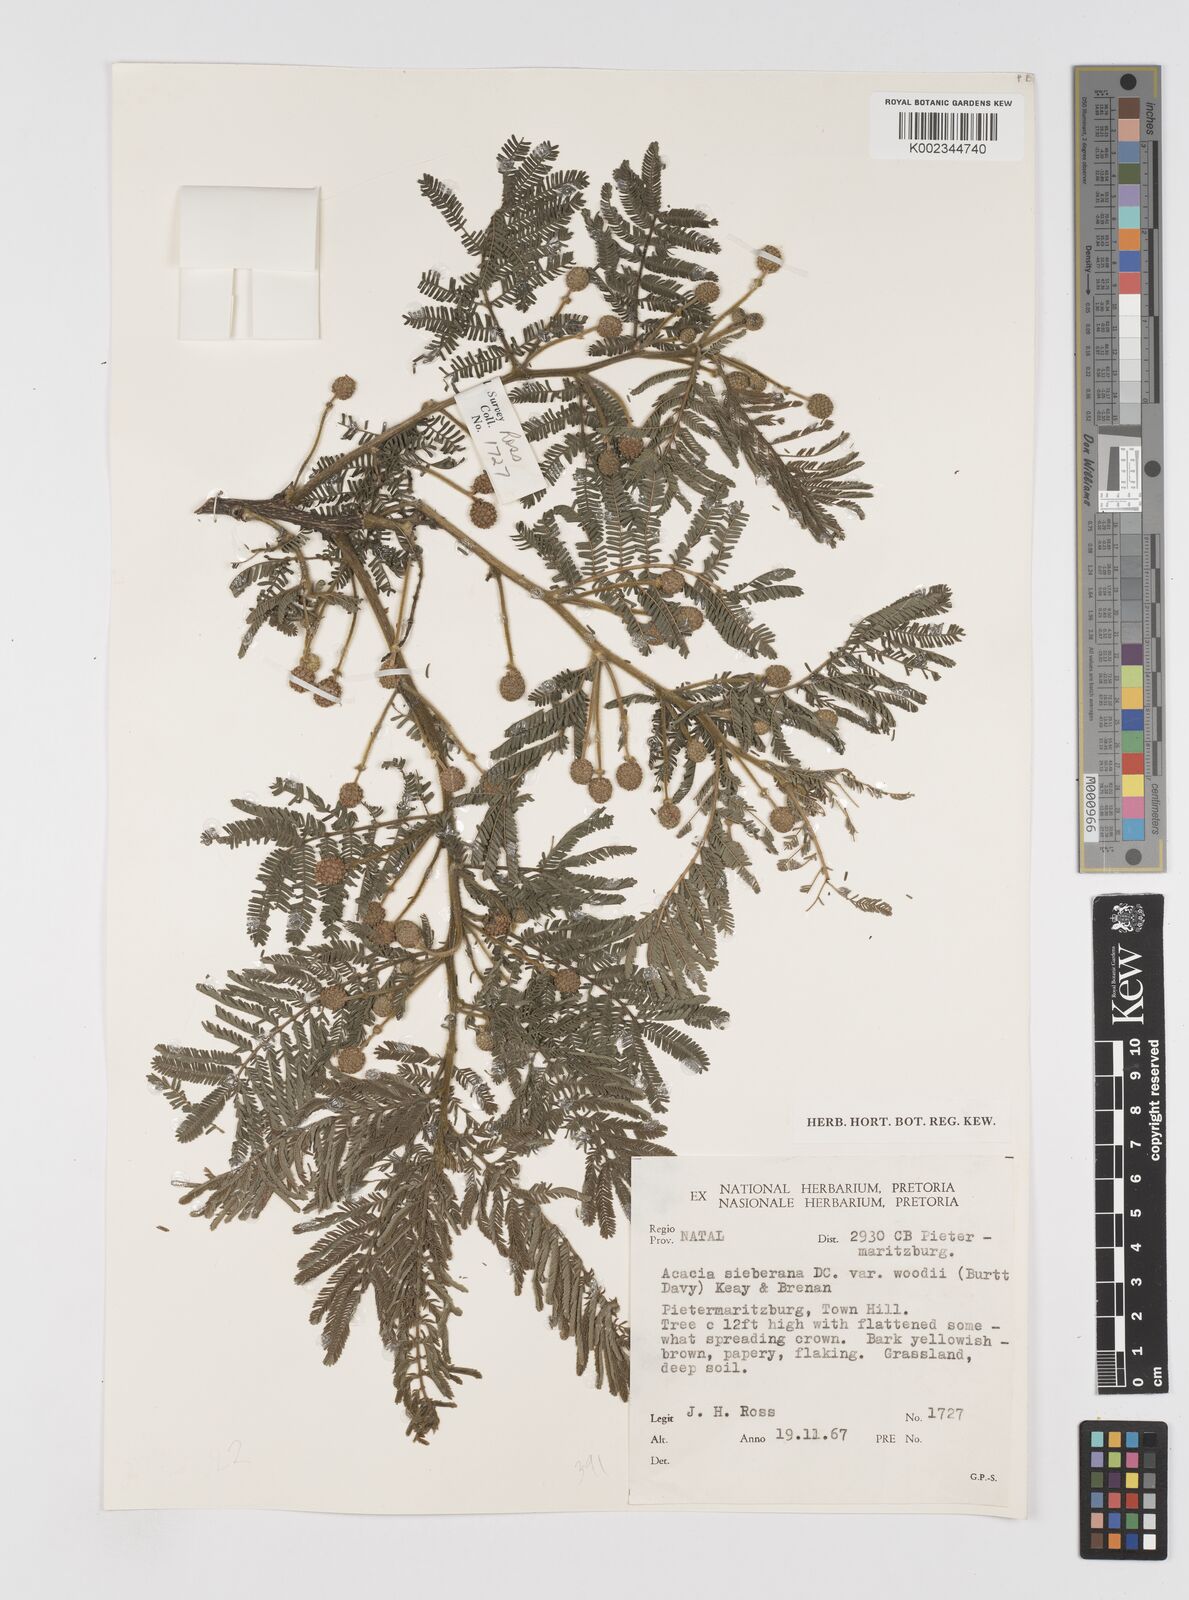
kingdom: Plantae
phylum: Tracheophyta
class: Magnoliopsida
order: Fabales
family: Fabaceae
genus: Acacia
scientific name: Acacia hamiltoniana
